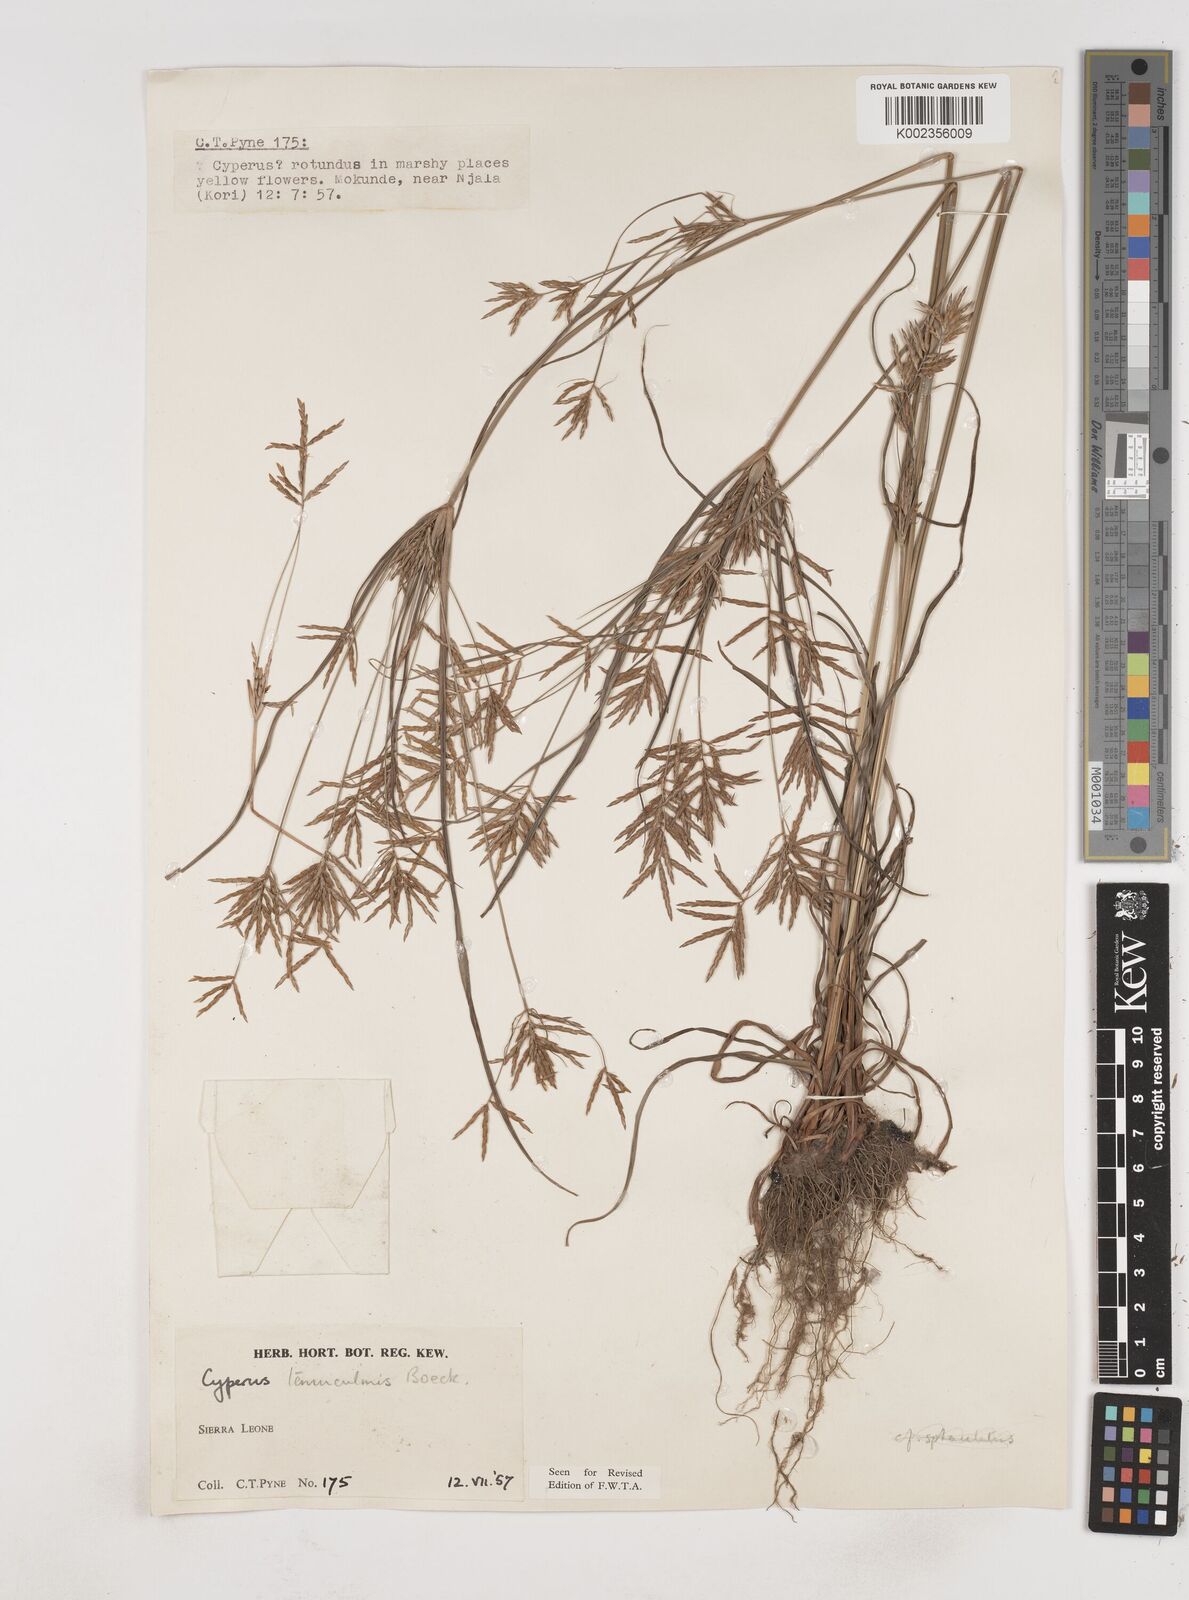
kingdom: Plantae
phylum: Tracheophyta
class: Liliopsida
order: Poales
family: Cyperaceae
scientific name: Cyperaceae
